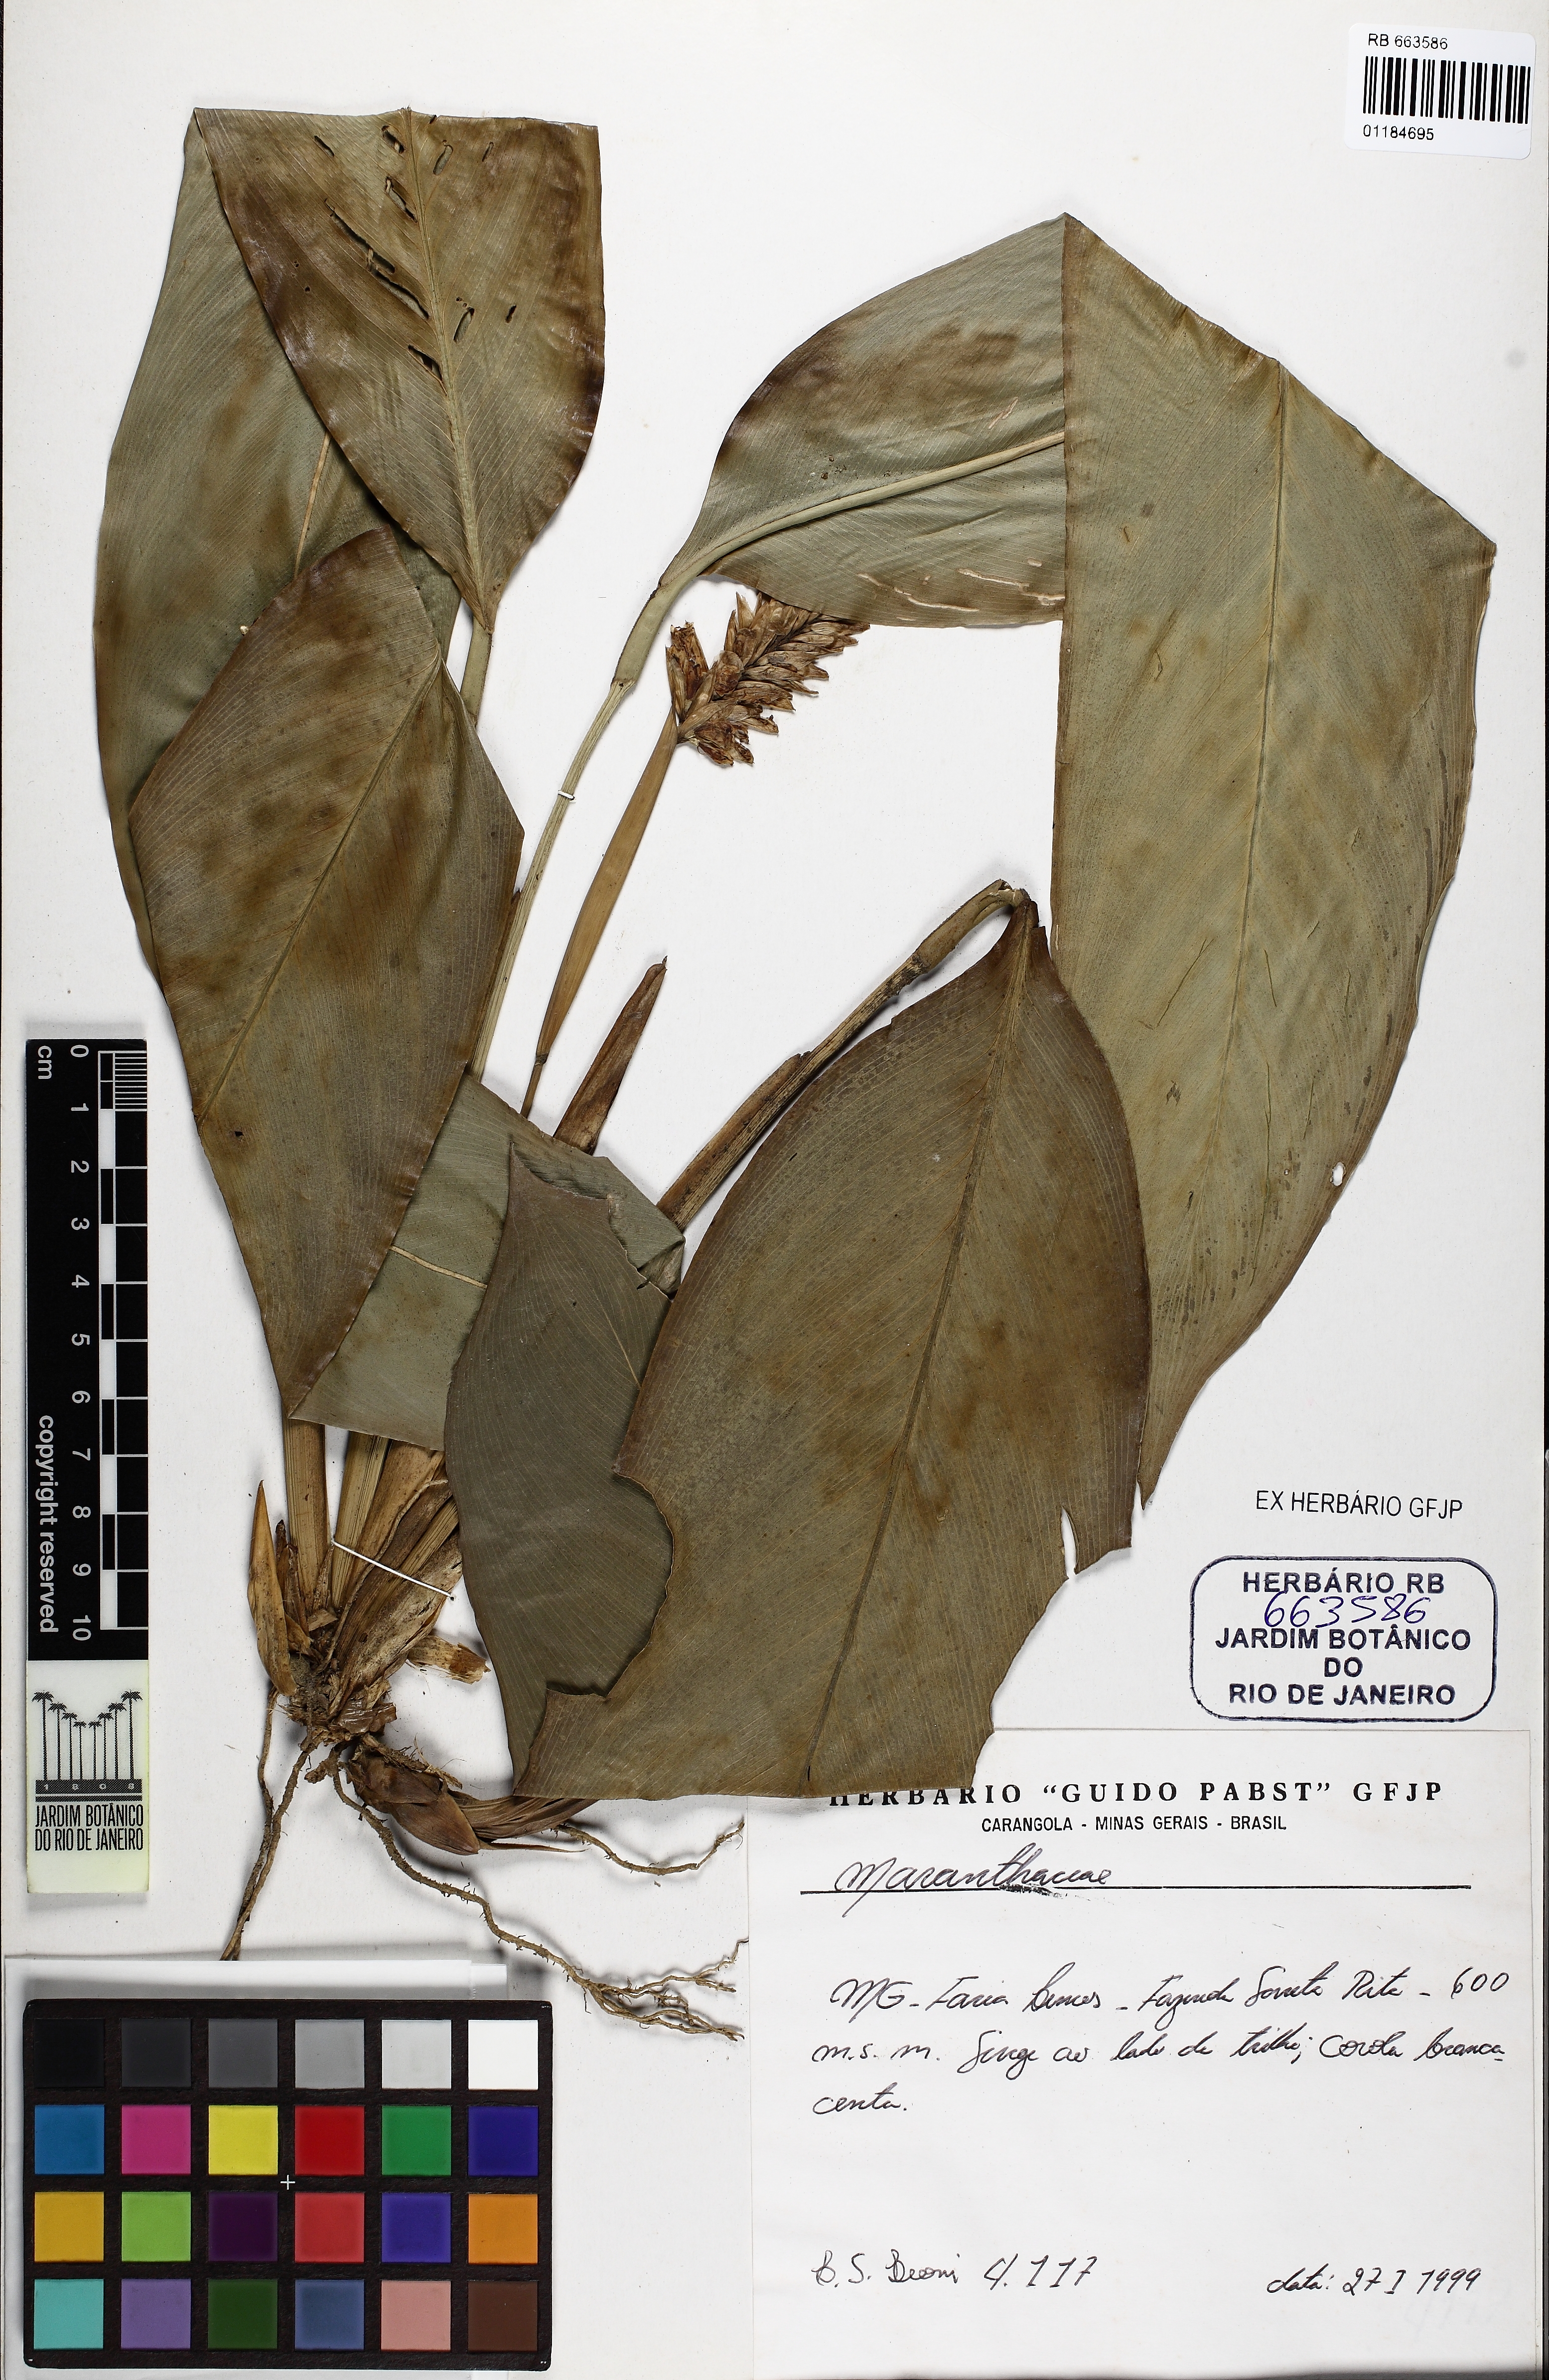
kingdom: Plantae
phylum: Tracheophyta
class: Liliopsida
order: Zingiberales
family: Marantaceae
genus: Saranthe
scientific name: Saranthe leptostachya
